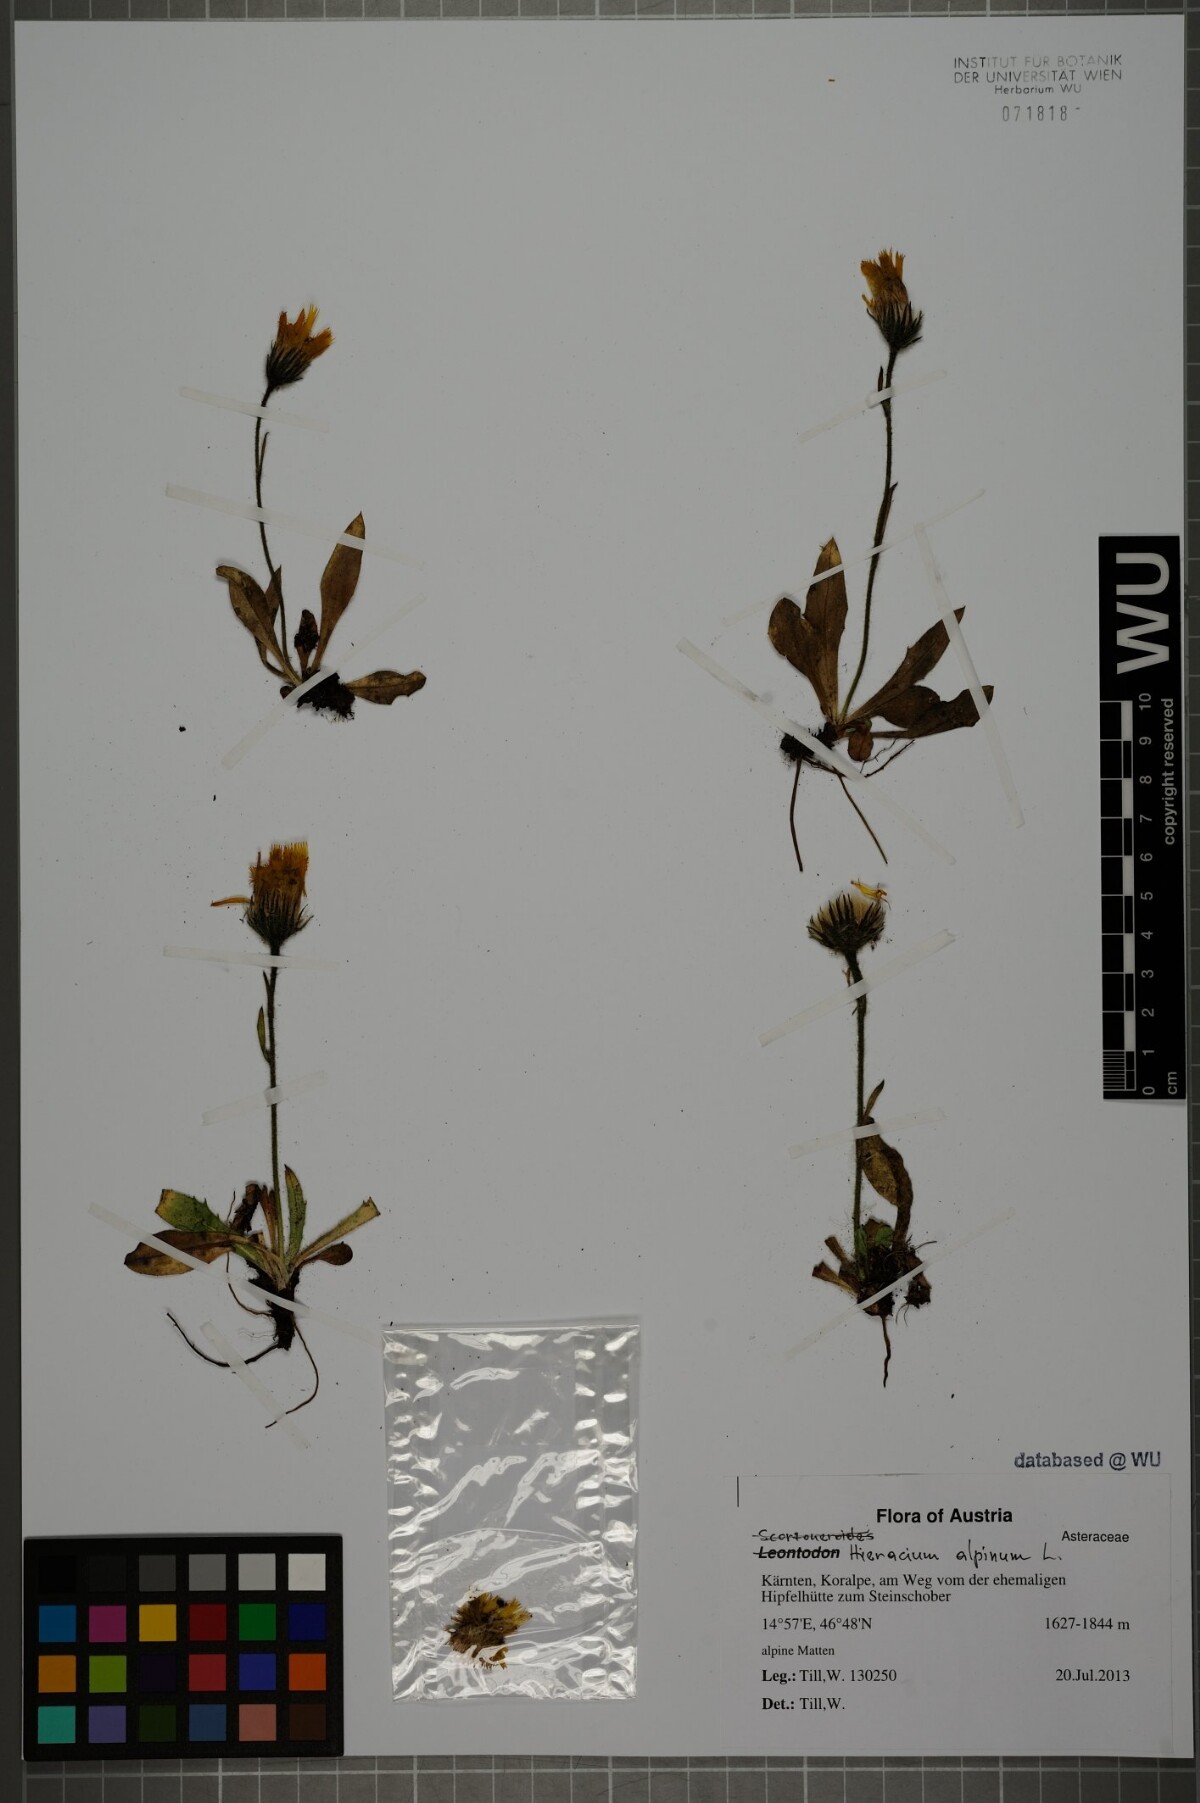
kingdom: Plantae
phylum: Tracheophyta
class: Magnoliopsida
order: Asterales
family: Asteraceae
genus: Hieracium
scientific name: Hieracium alpinum
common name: Alpine hawkweed
